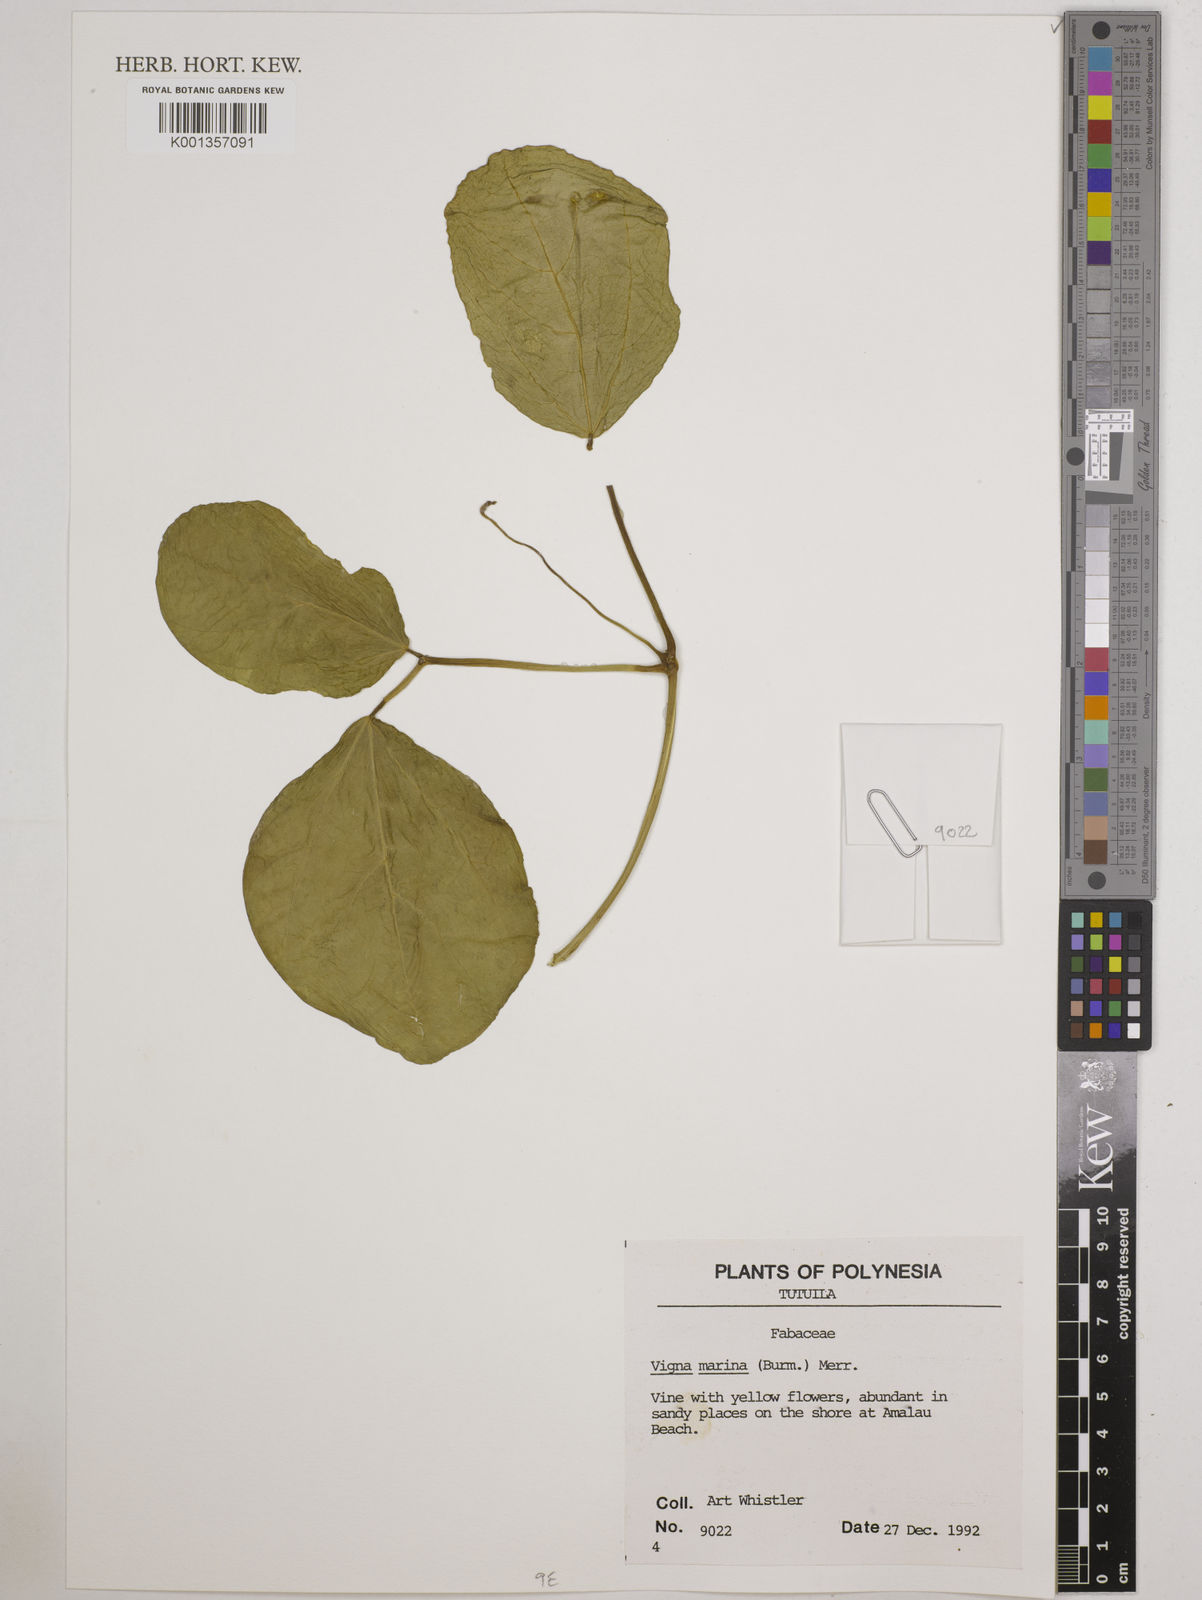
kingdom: Plantae
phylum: Tracheophyta
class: Magnoliopsida
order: Fabales
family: Fabaceae
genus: Vigna
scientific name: Vigna marina
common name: Dune-bean
